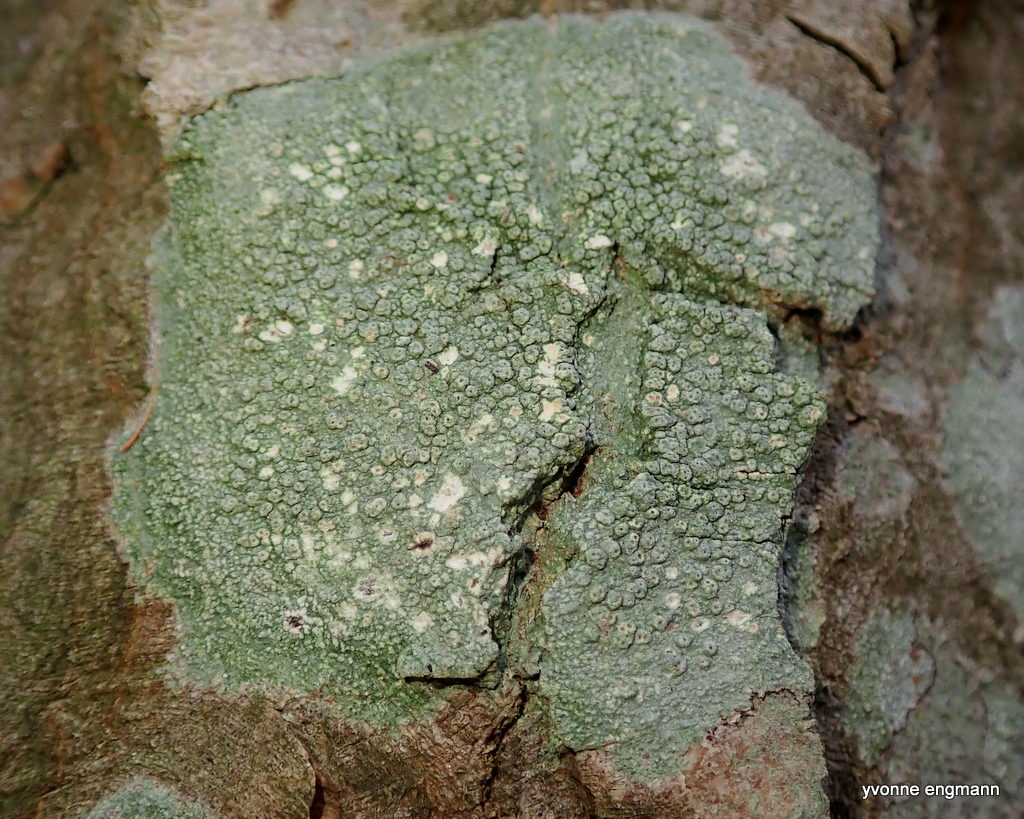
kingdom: Fungi
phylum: Ascomycota
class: Lecanoromycetes
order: Pertusariales
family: Pertusariaceae
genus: Pertusaria
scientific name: Pertusaria pertusa
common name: almindelig prikvortelav
